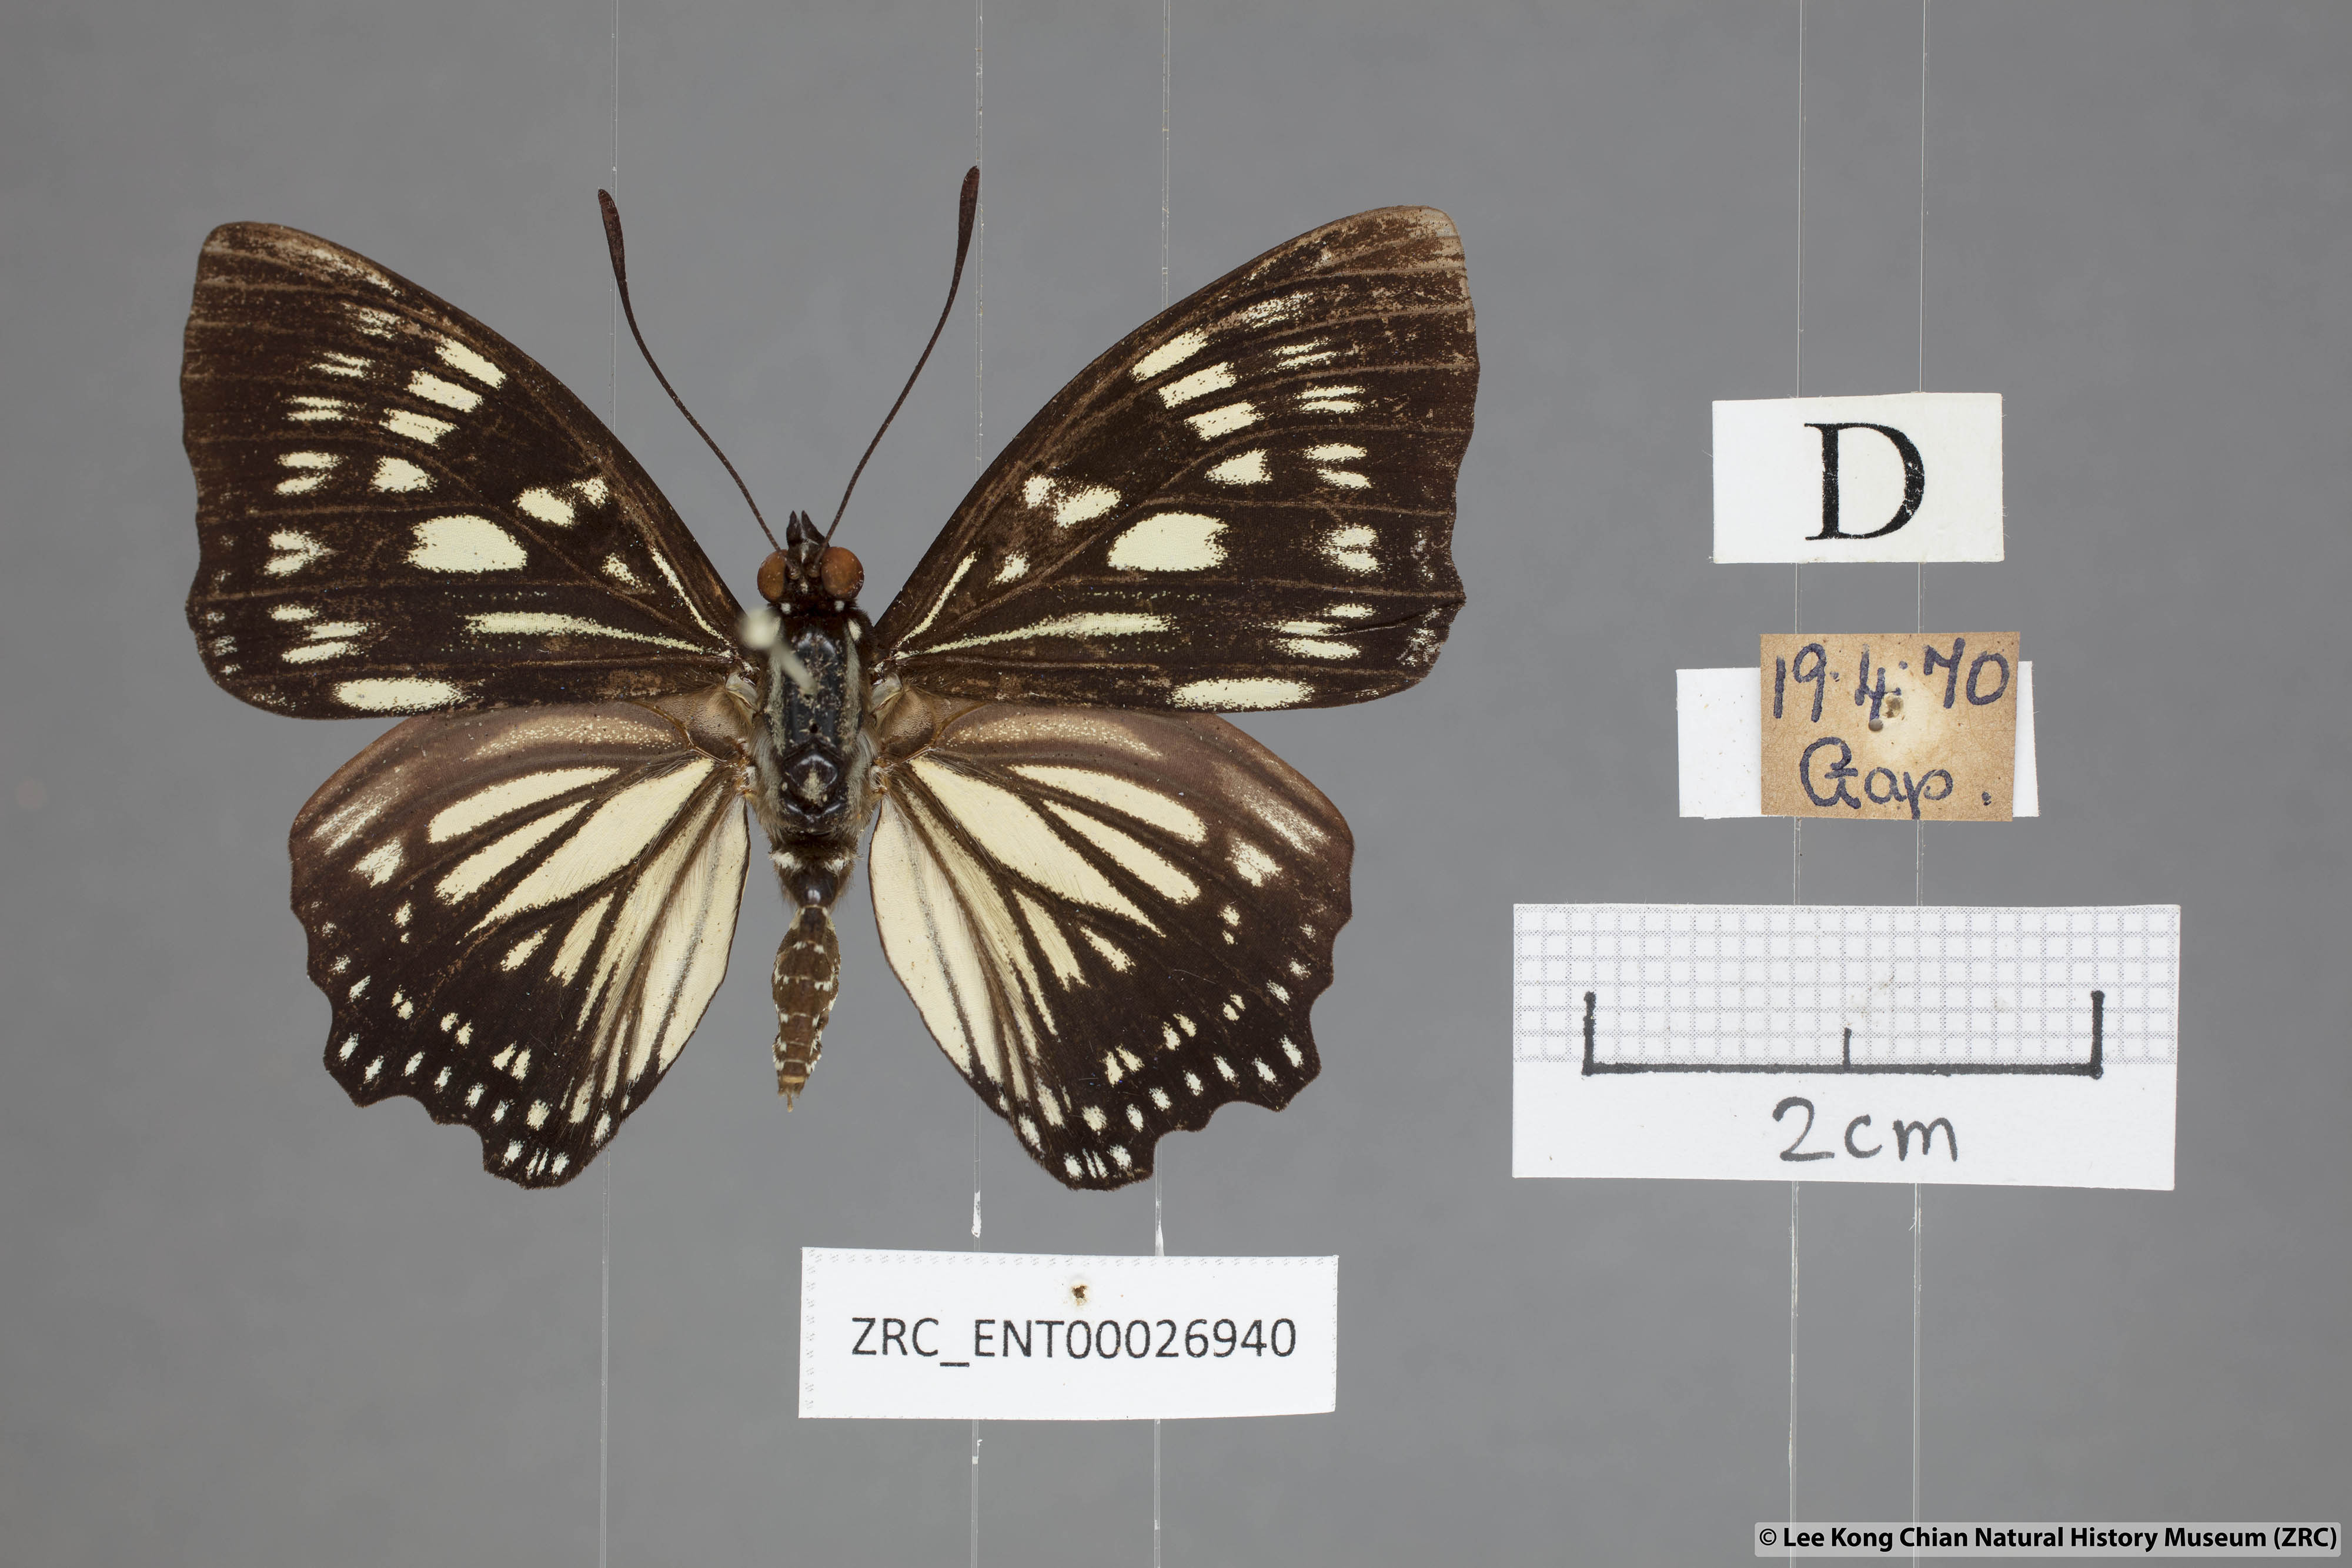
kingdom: Animalia
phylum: Arthropoda
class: Insecta
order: Lepidoptera
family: Nymphalidae
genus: Euripus
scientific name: Euripus nyctelius
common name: Courtesan
